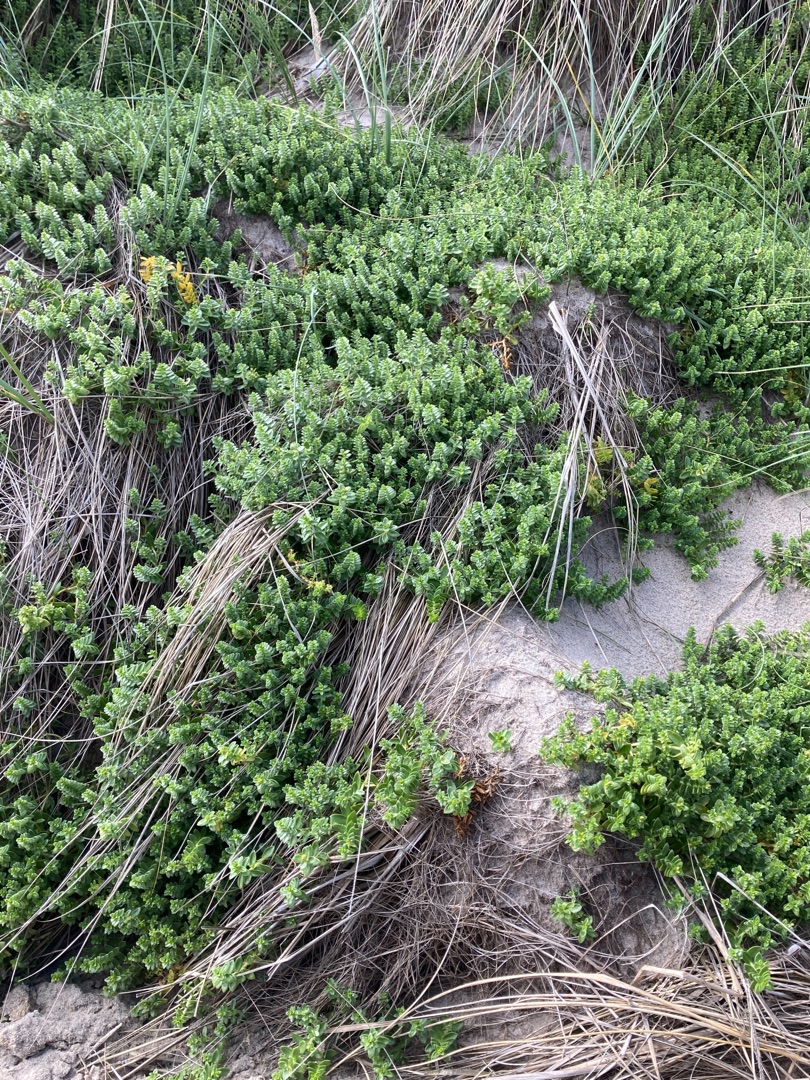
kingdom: Plantae
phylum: Tracheophyta
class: Magnoliopsida
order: Caryophyllales
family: Caryophyllaceae
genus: Honckenya
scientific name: Honckenya peploides
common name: Strandarve
